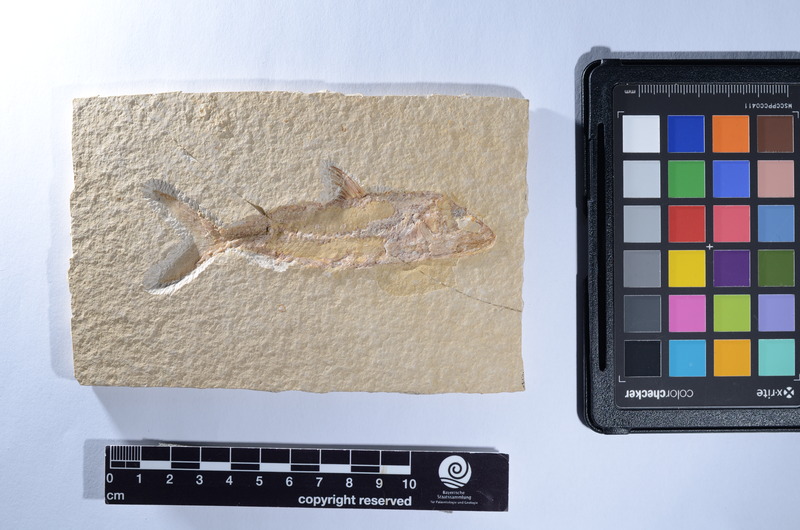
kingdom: Animalia
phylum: Chordata
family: Ankylophoridae
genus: Pholidophoristion
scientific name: Pholidophoristion micronyx
